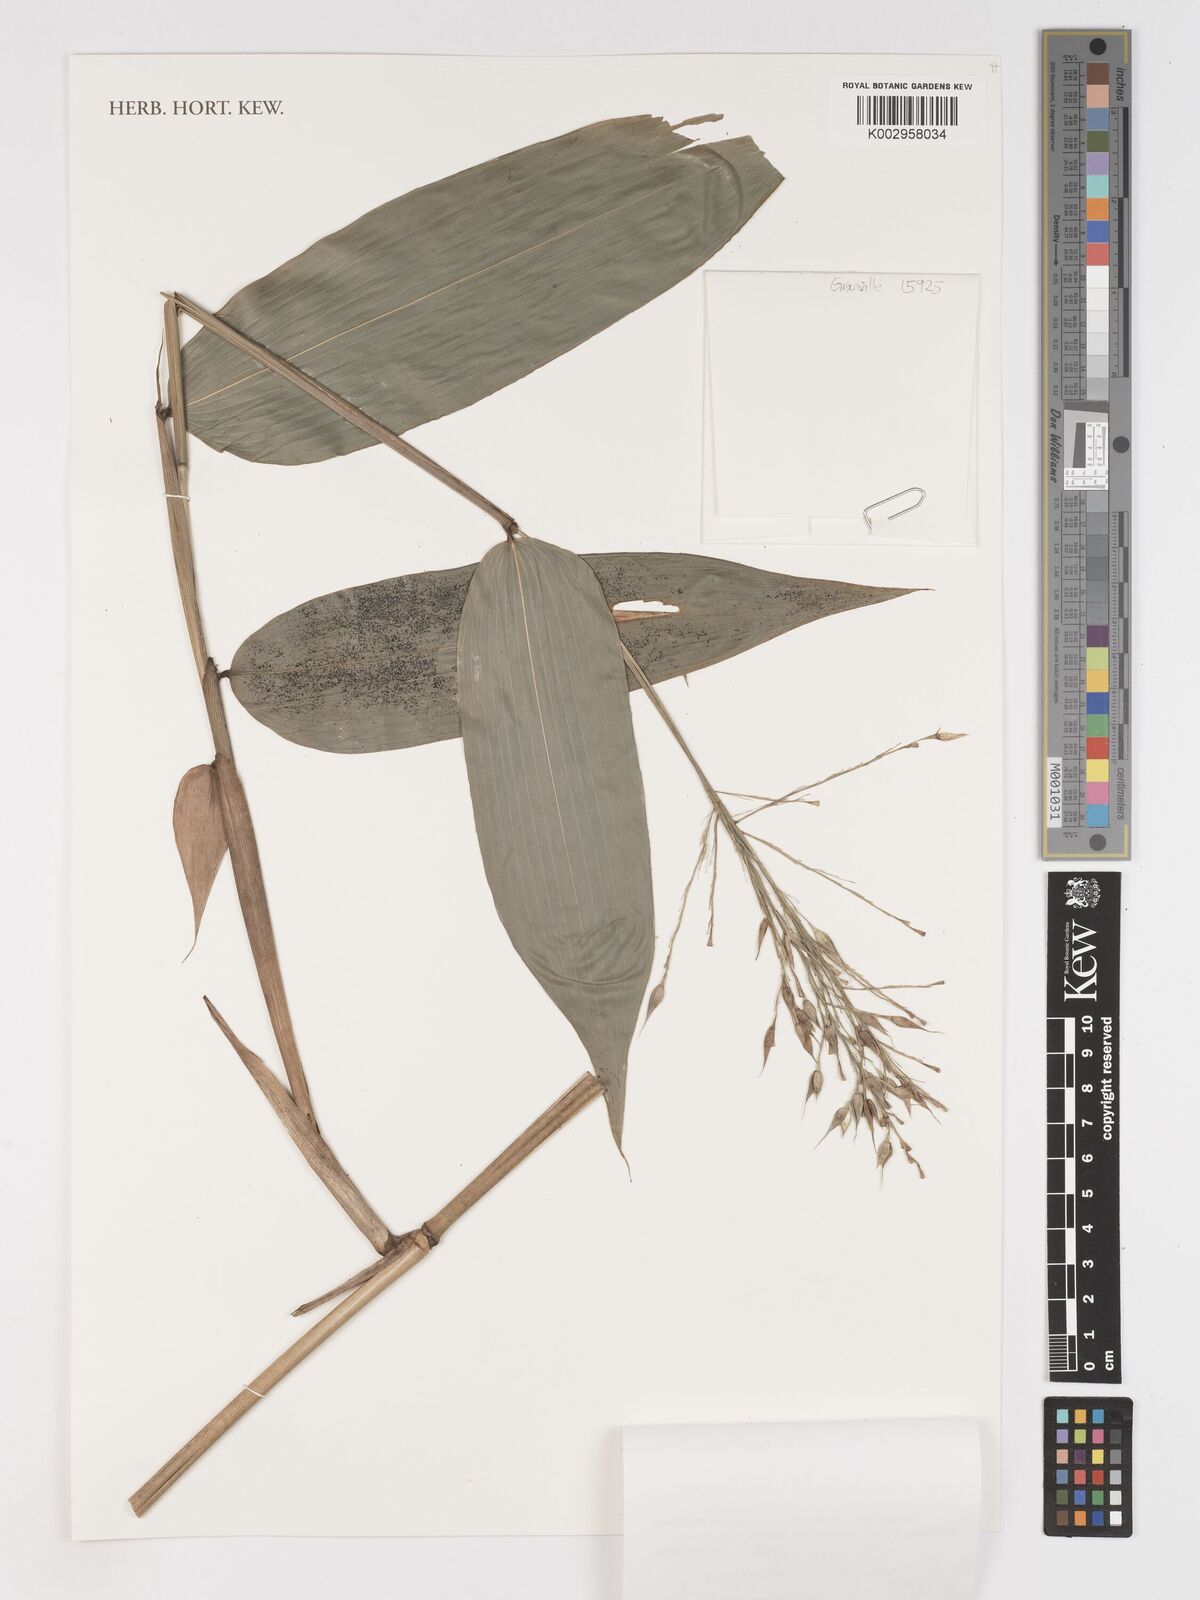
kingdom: Plantae
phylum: Tracheophyta
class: Liliopsida
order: Poales
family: Poaceae
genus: Olyra
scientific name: Olyra latifolia
